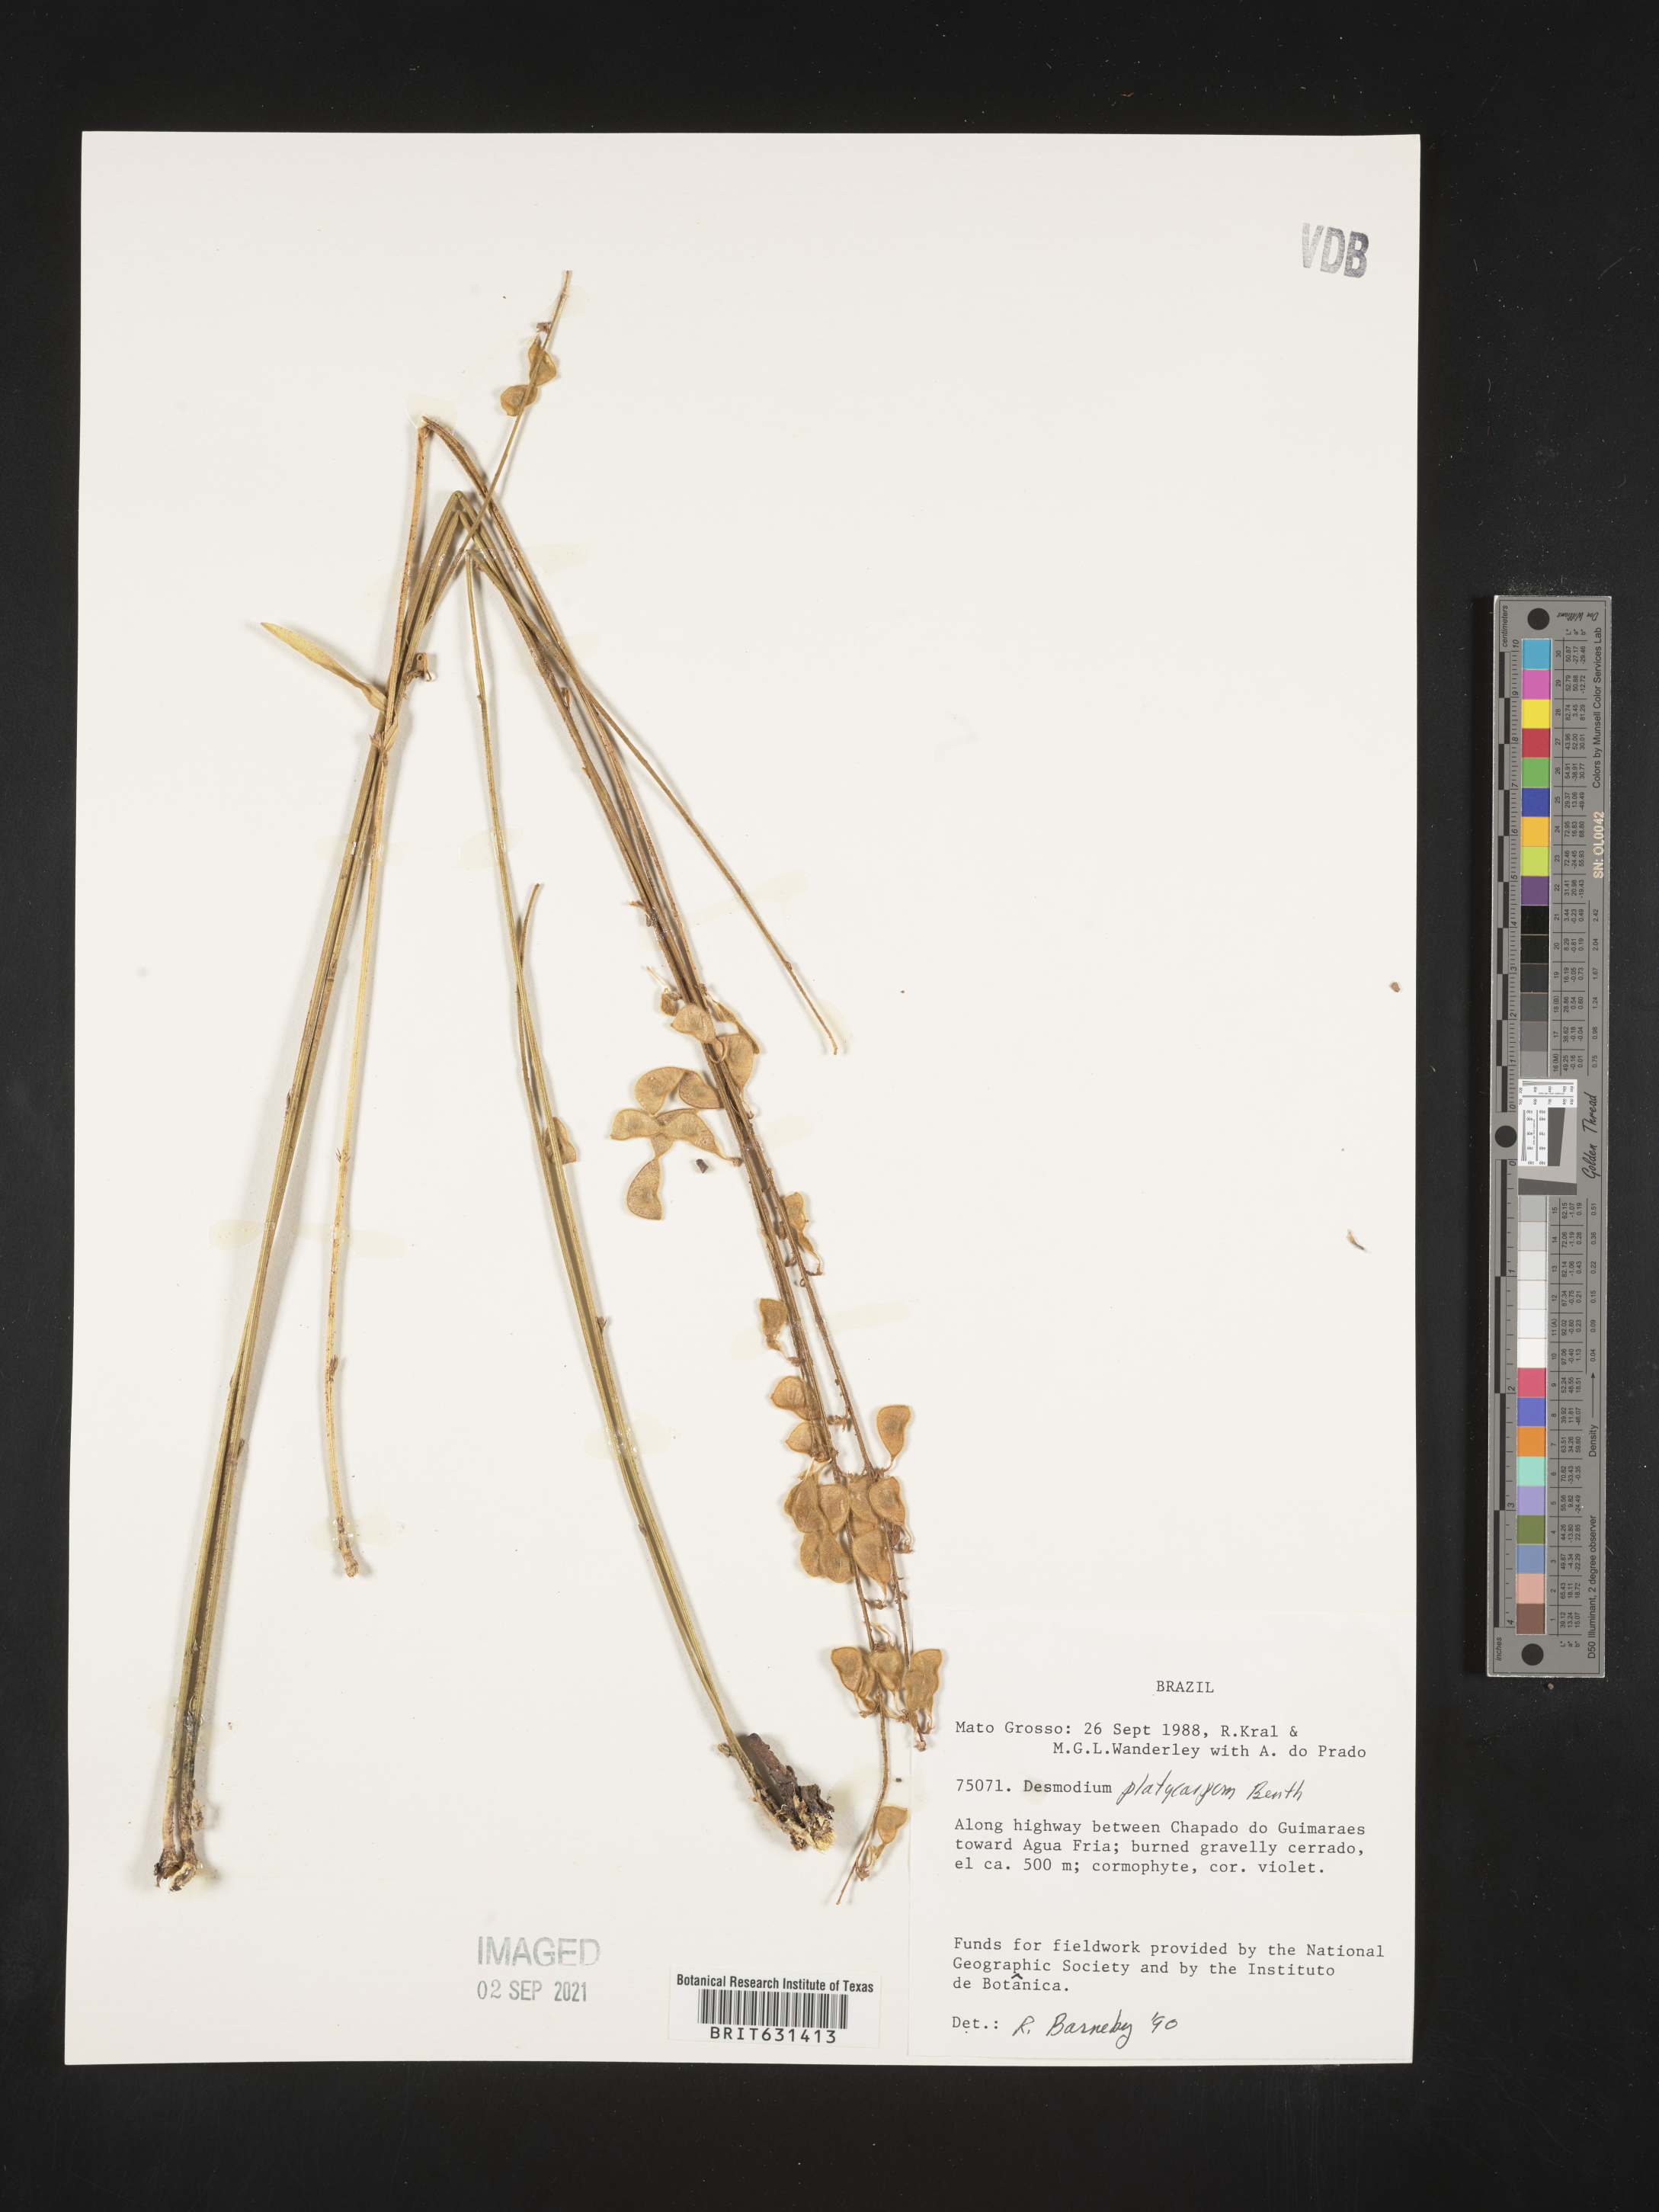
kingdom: Plantae
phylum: Tracheophyta
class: Magnoliopsida
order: Fabales
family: Fabaceae
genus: Desmodium
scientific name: Desmodium platycarpum
